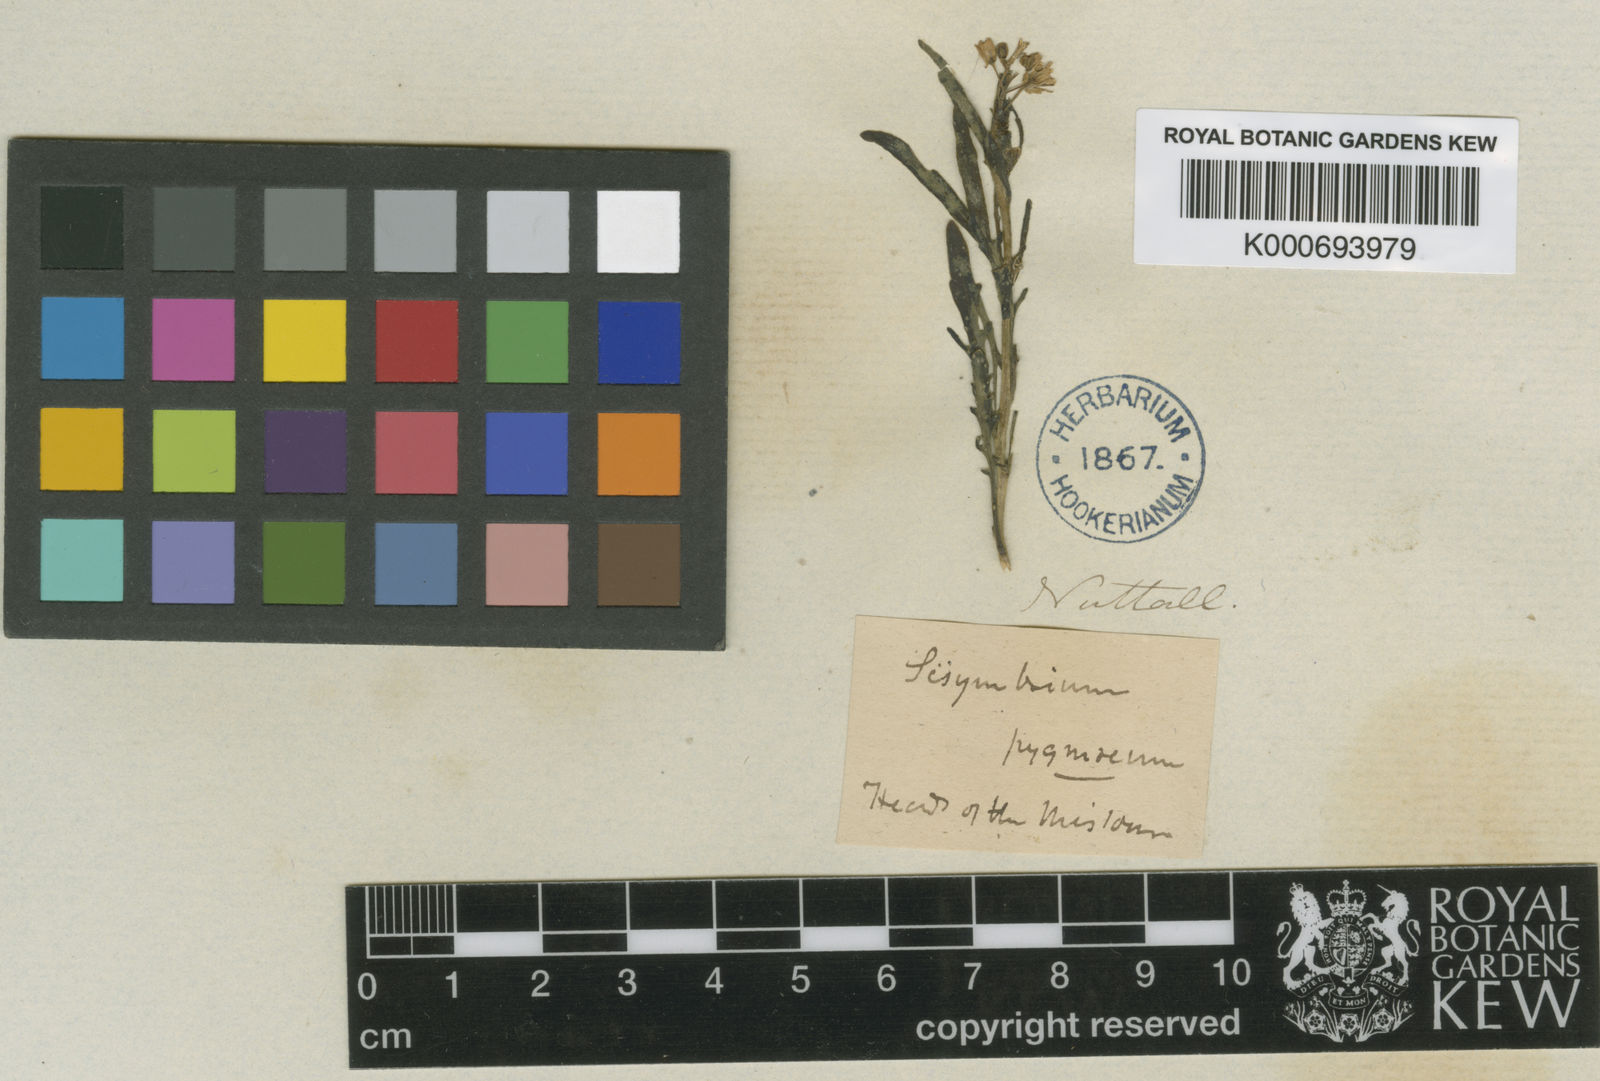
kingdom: Plantae
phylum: Tracheophyta
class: Magnoliopsida
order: Brassicales
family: Brassicaceae
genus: Hesperidanthus
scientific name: Hesperidanthus
